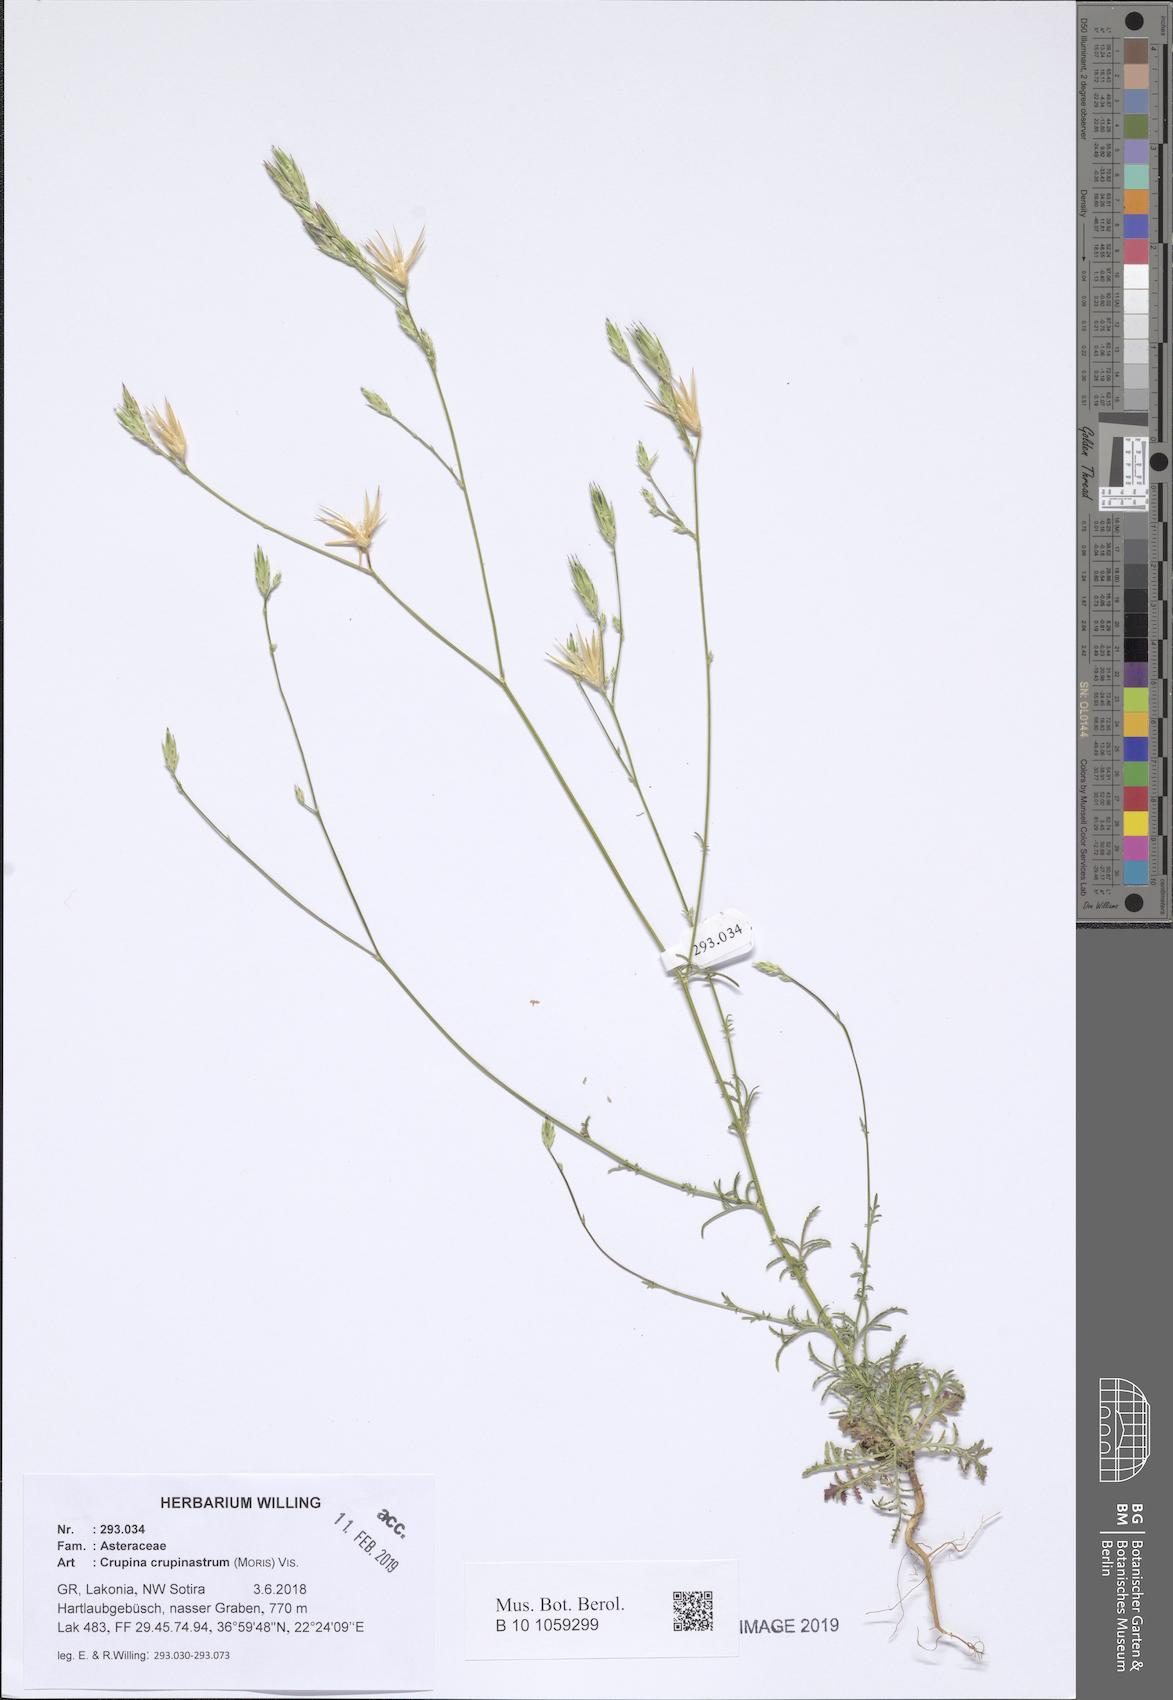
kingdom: Plantae
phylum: Tracheophyta
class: Magnoliopsida
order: Asterales
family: Asteraceae
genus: Crupina
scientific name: Crupina crupinastrum
